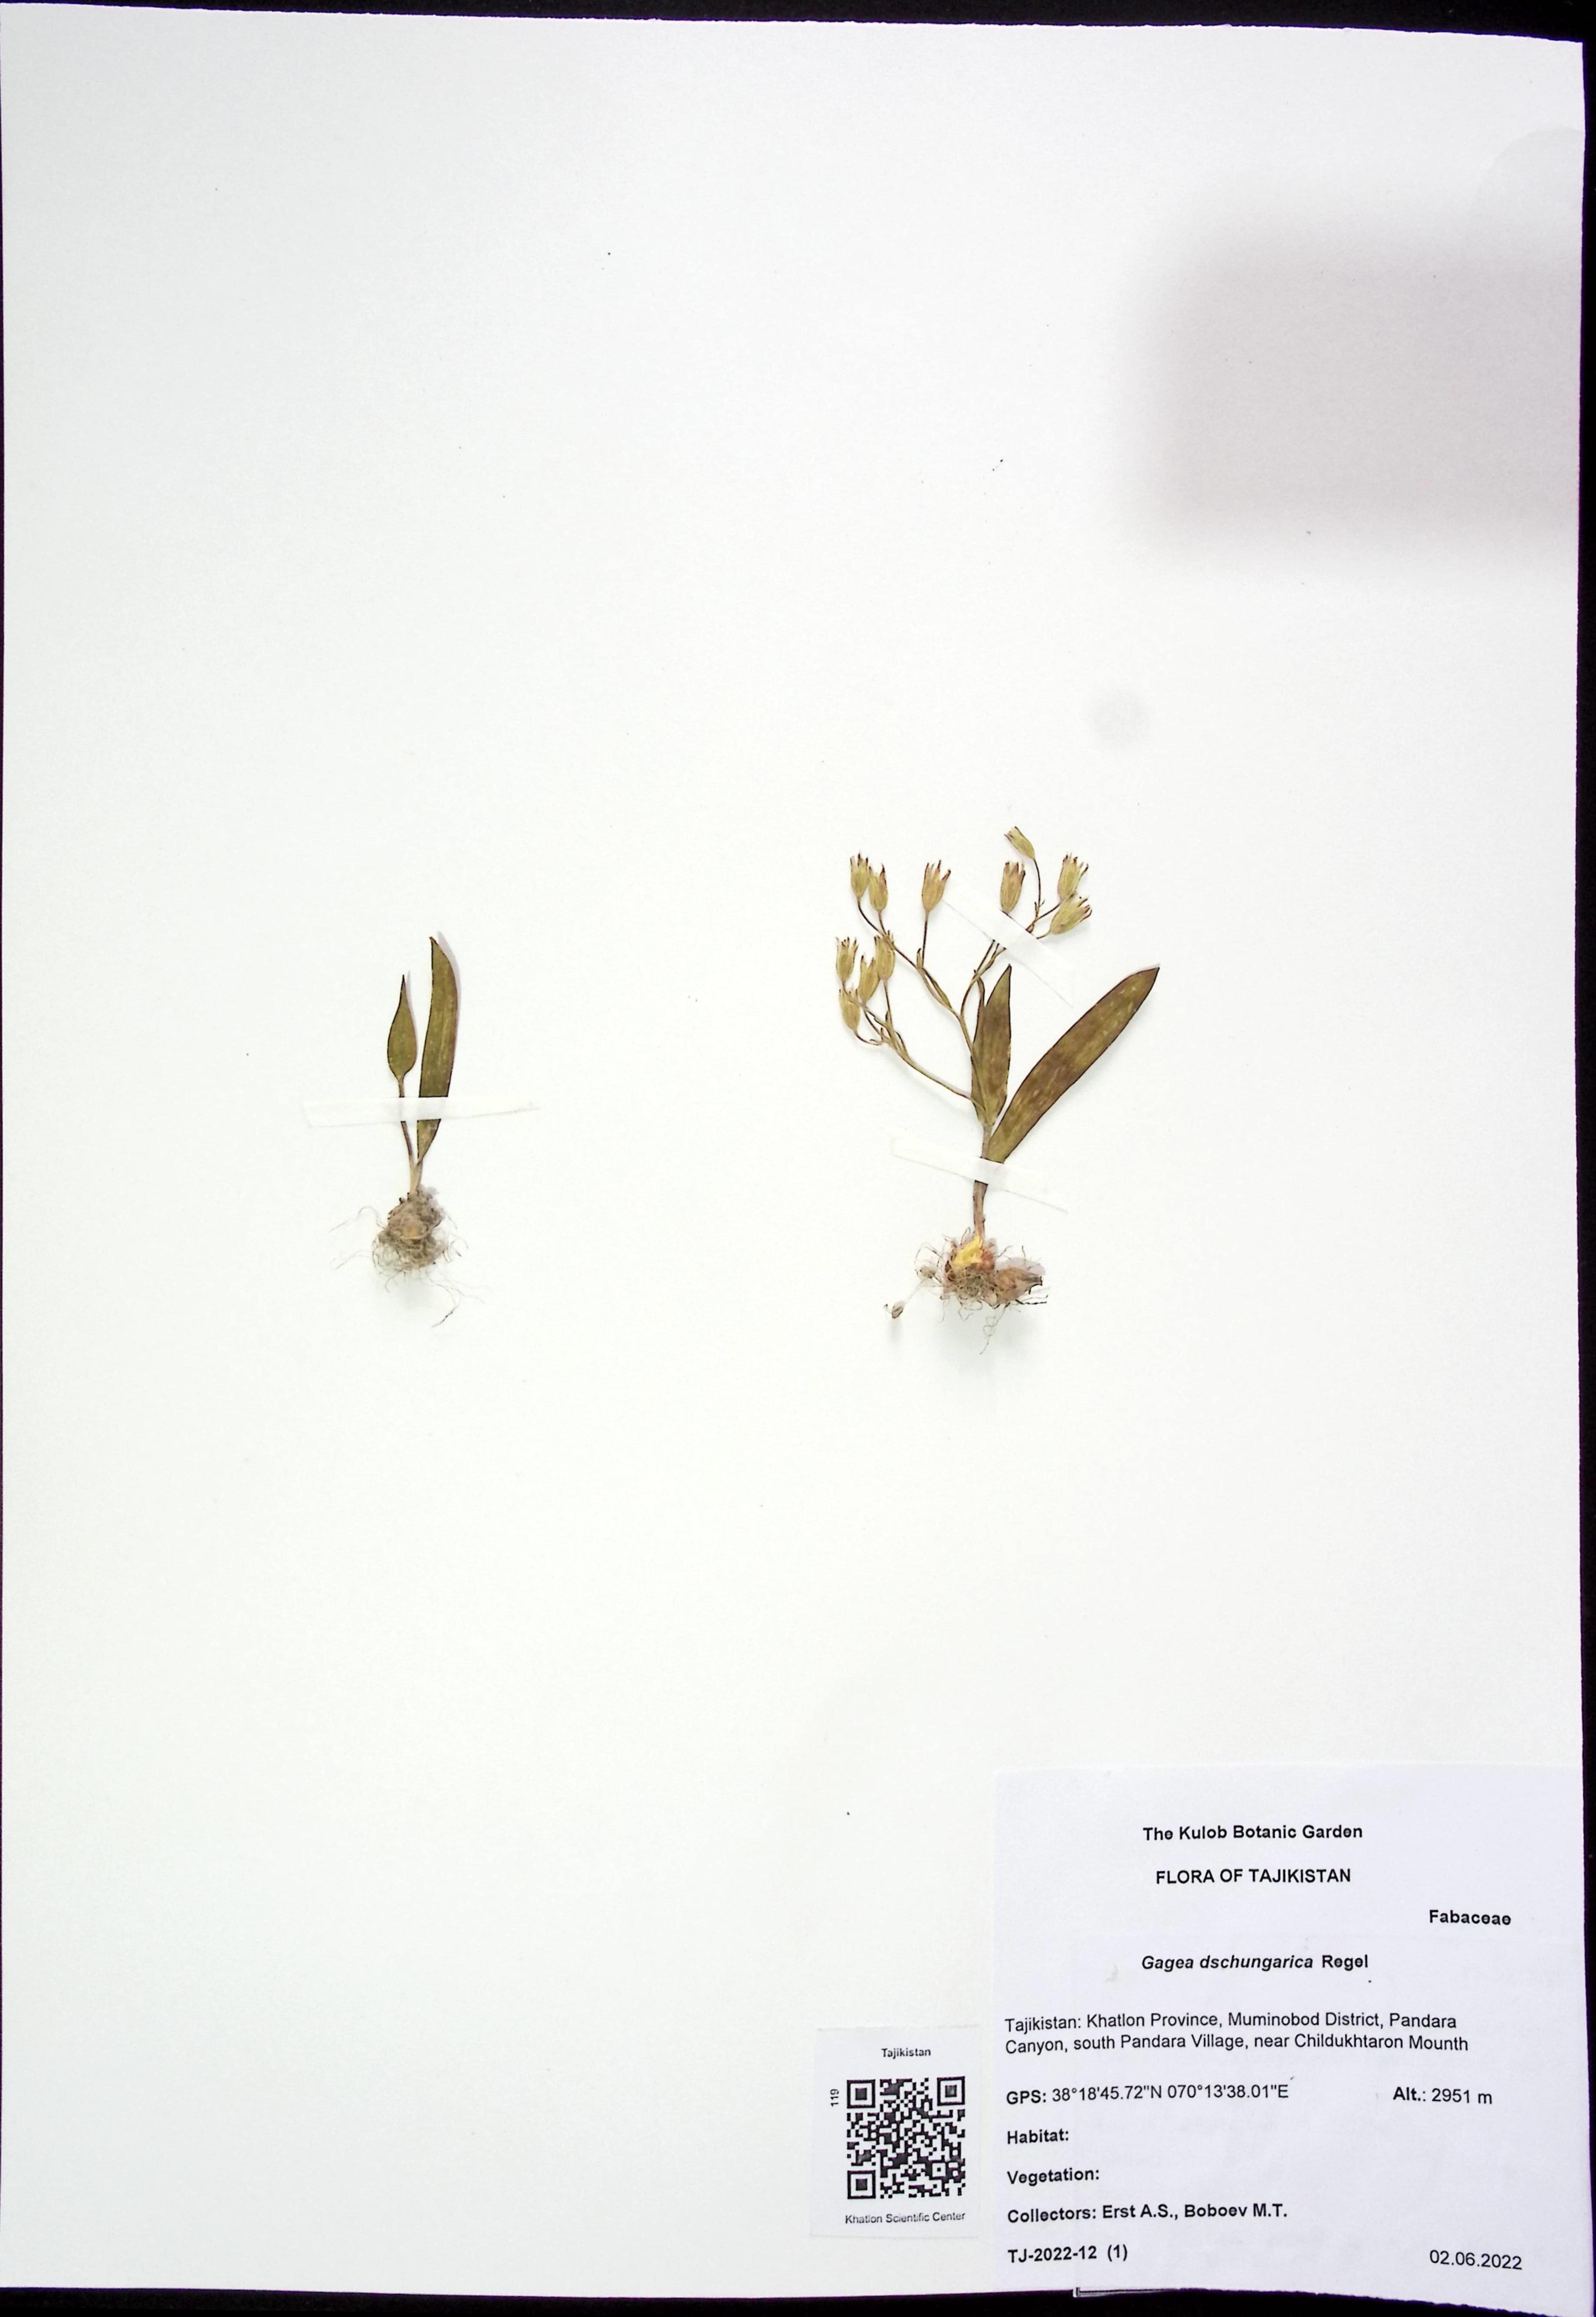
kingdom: Plantae
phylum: Tracheophyta
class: Liliopsida
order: Liliales
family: Liliaceae
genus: Gagea
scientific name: Gagea dschungarica
